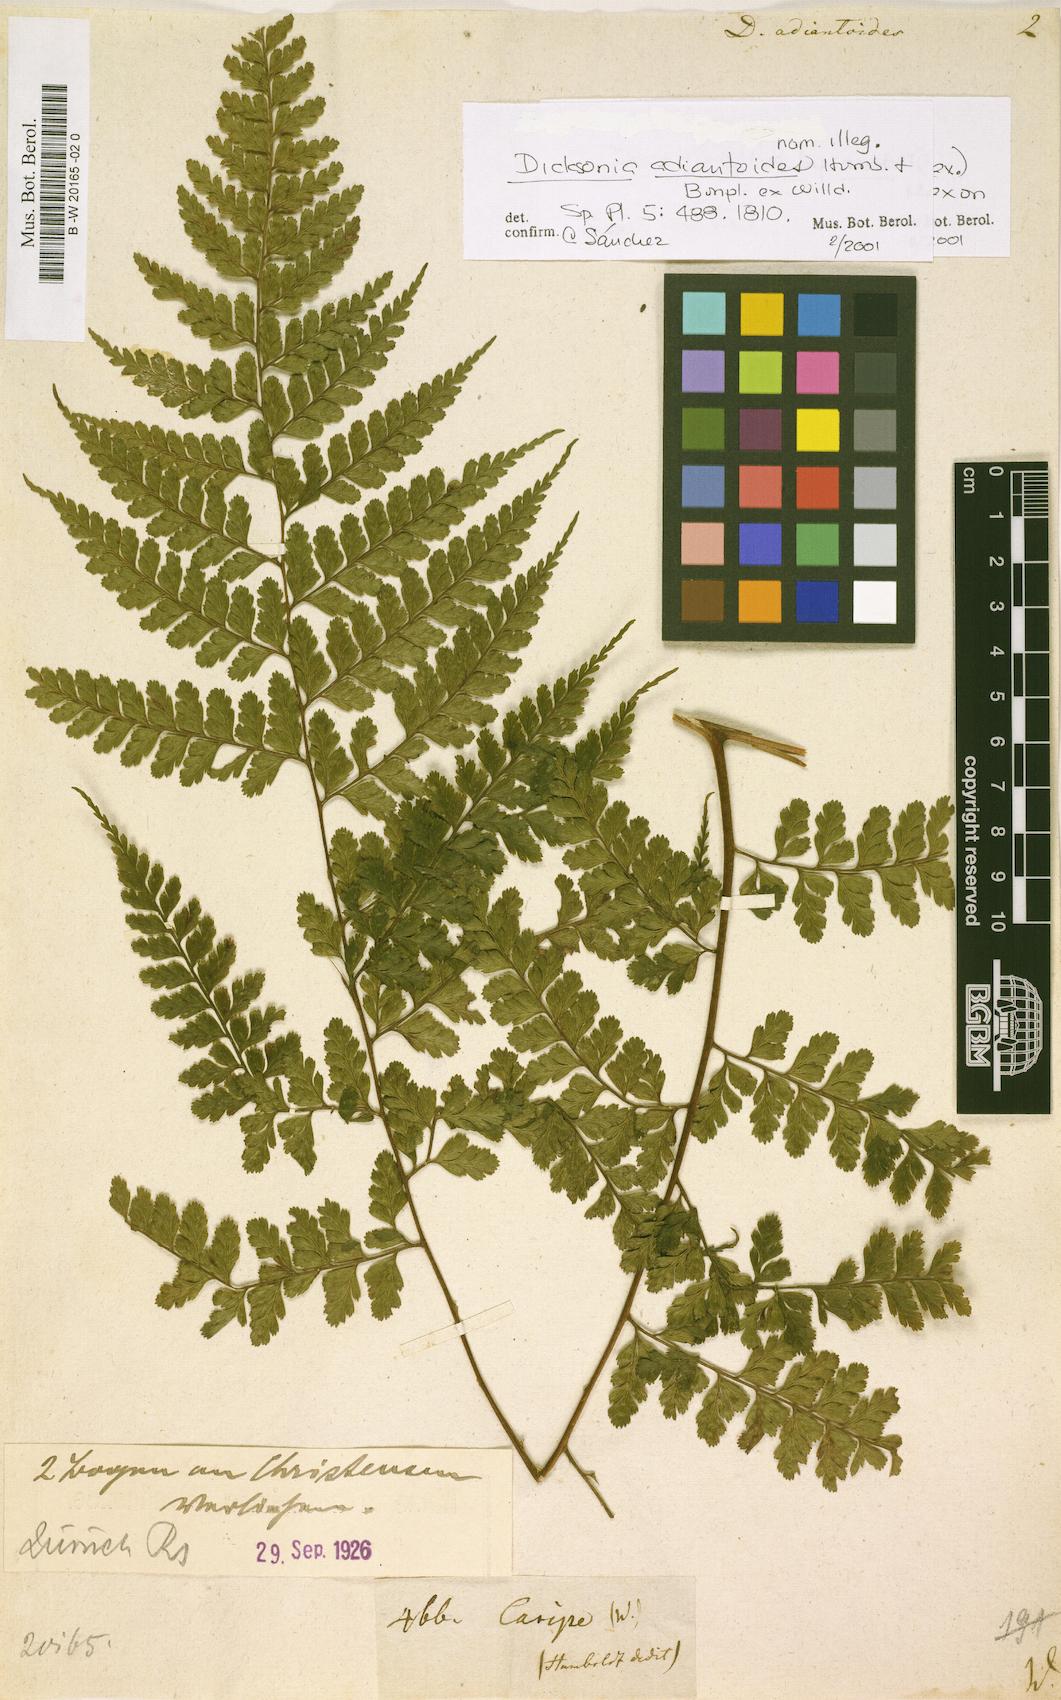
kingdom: Plantae
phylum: Tracheophyta
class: Polypodiopsida
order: Polypodiales
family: Dennstaedtiaceae
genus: Mucura
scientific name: Mucura bipinnata
